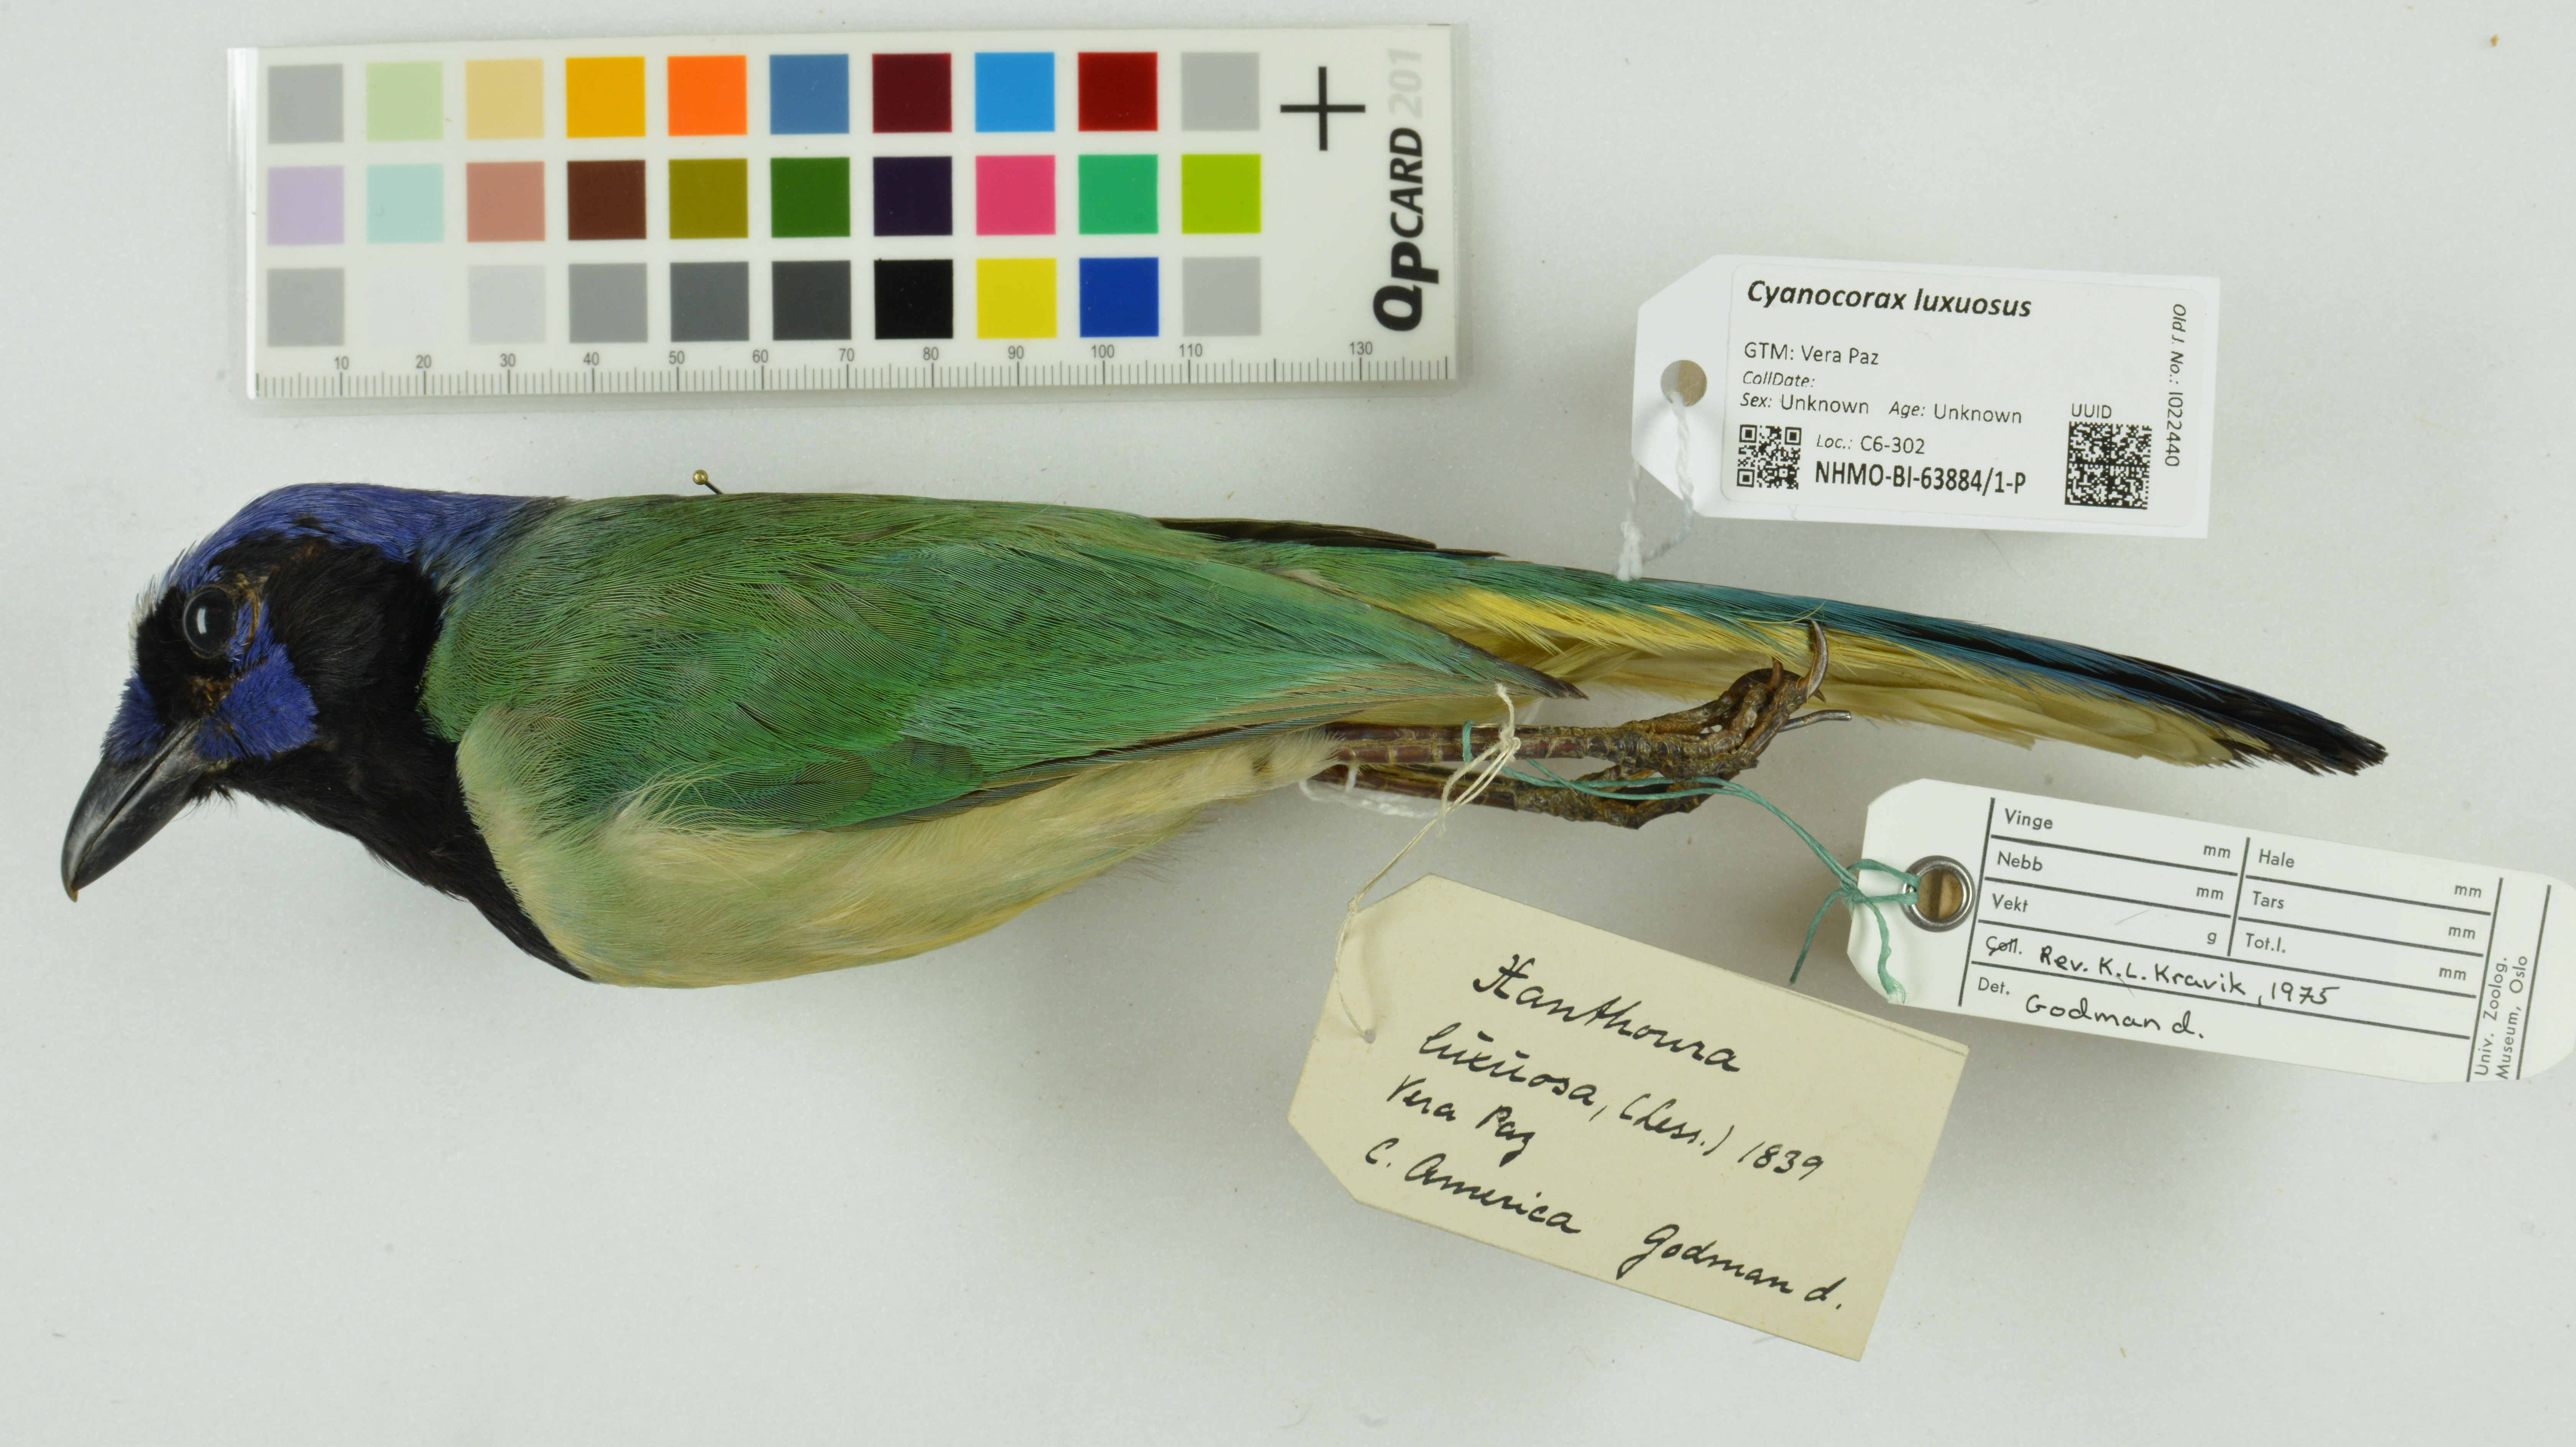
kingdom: Animalia
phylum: Chordata
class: Aves
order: Passeriformes
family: Corvidae
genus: Cyanocorax
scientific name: Cyanocorax luxuosus
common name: Green jay
